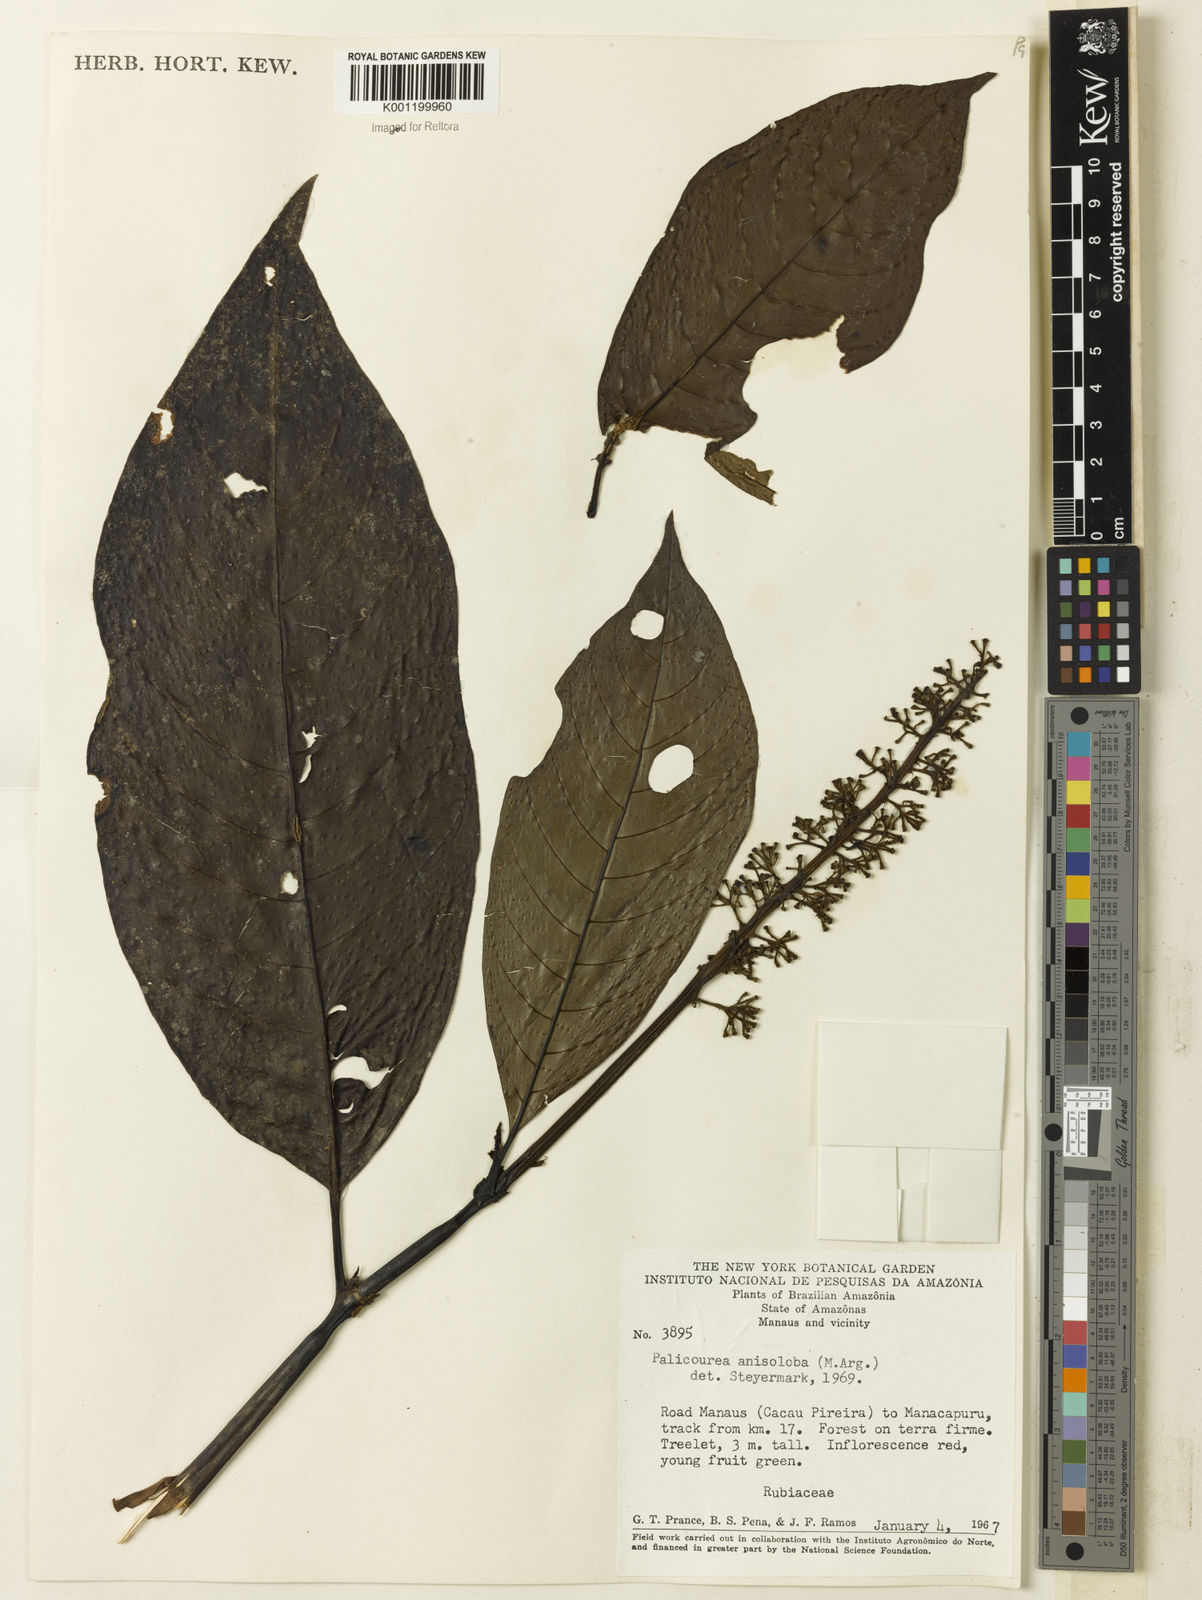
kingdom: Plantae
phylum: Tracheophyta
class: Magnoliopsida
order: Gentianales
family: Rubiaceae
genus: Palicourea
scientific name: Palicourea
